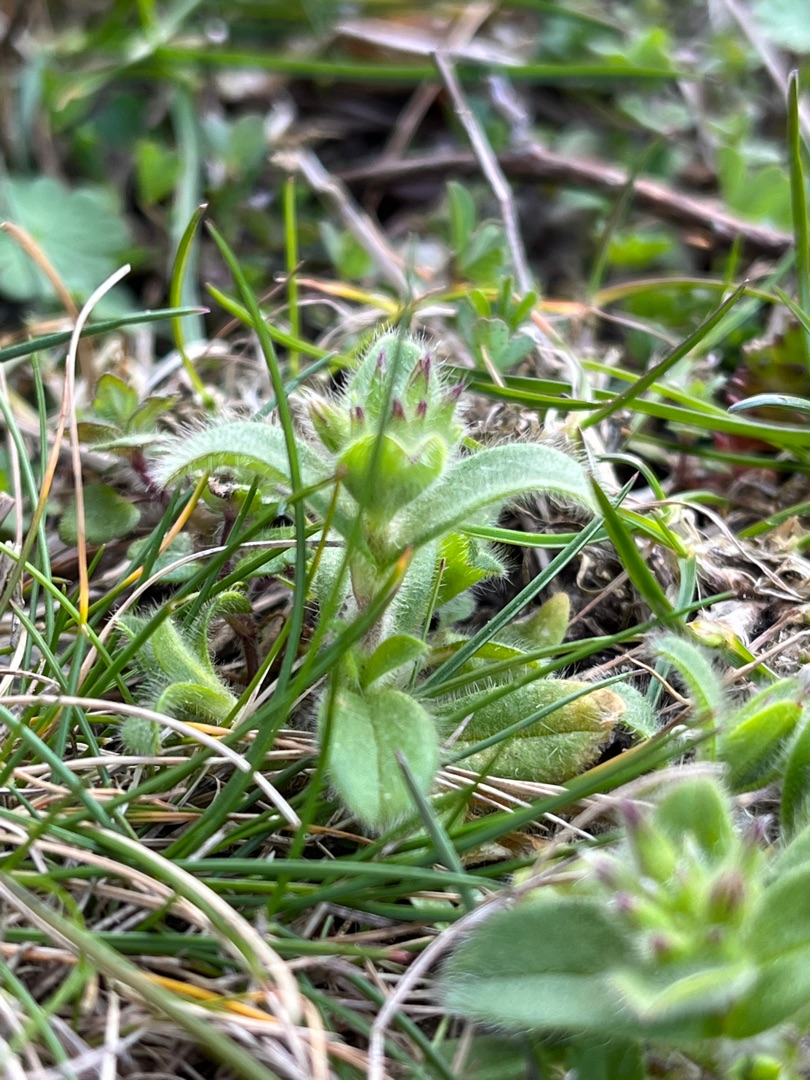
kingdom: Plantae
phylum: Tracheophyta
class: Magnoliopsida
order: Caryophyllales
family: Caryophyllaceae
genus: Cerastium
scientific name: Cerastium glomeratum
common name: Opret hønsetarm
